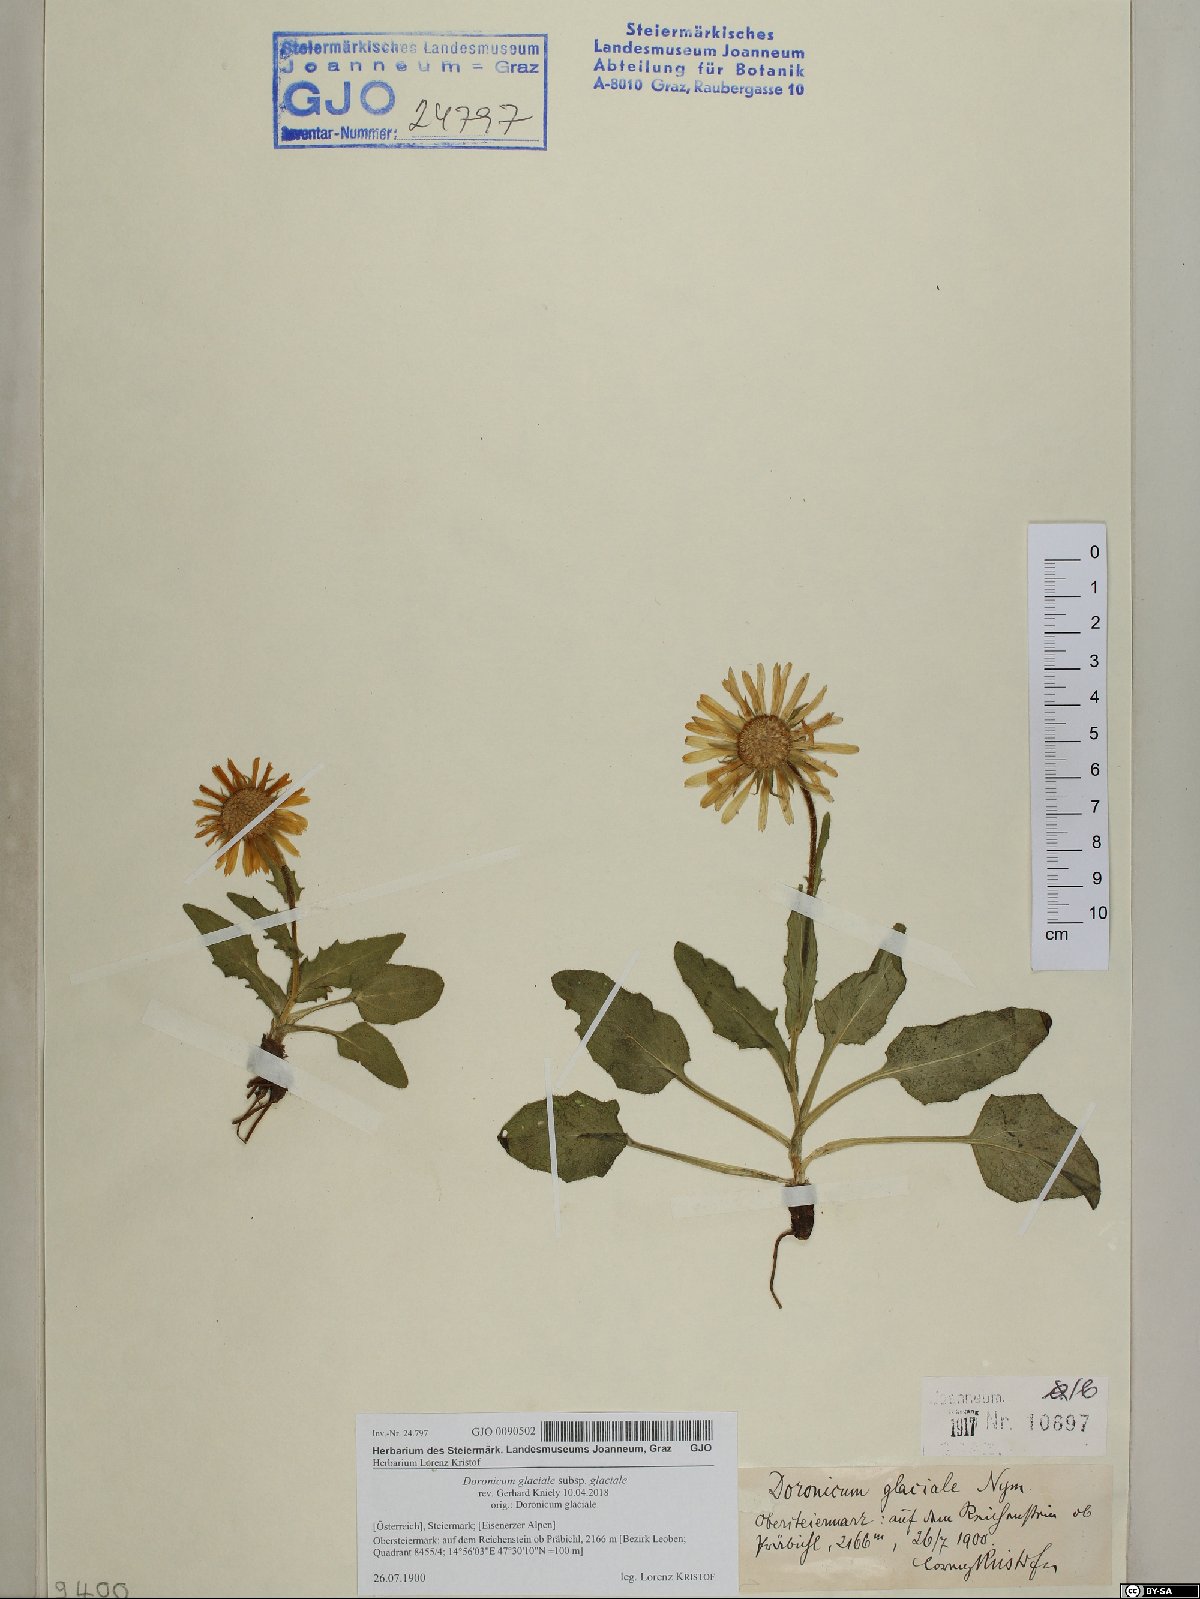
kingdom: Plantae
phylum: Tracheophyta
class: Magnoliopsida
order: Asterales
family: Asteraceae
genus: Doronicum
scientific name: Doronicum glaciale
